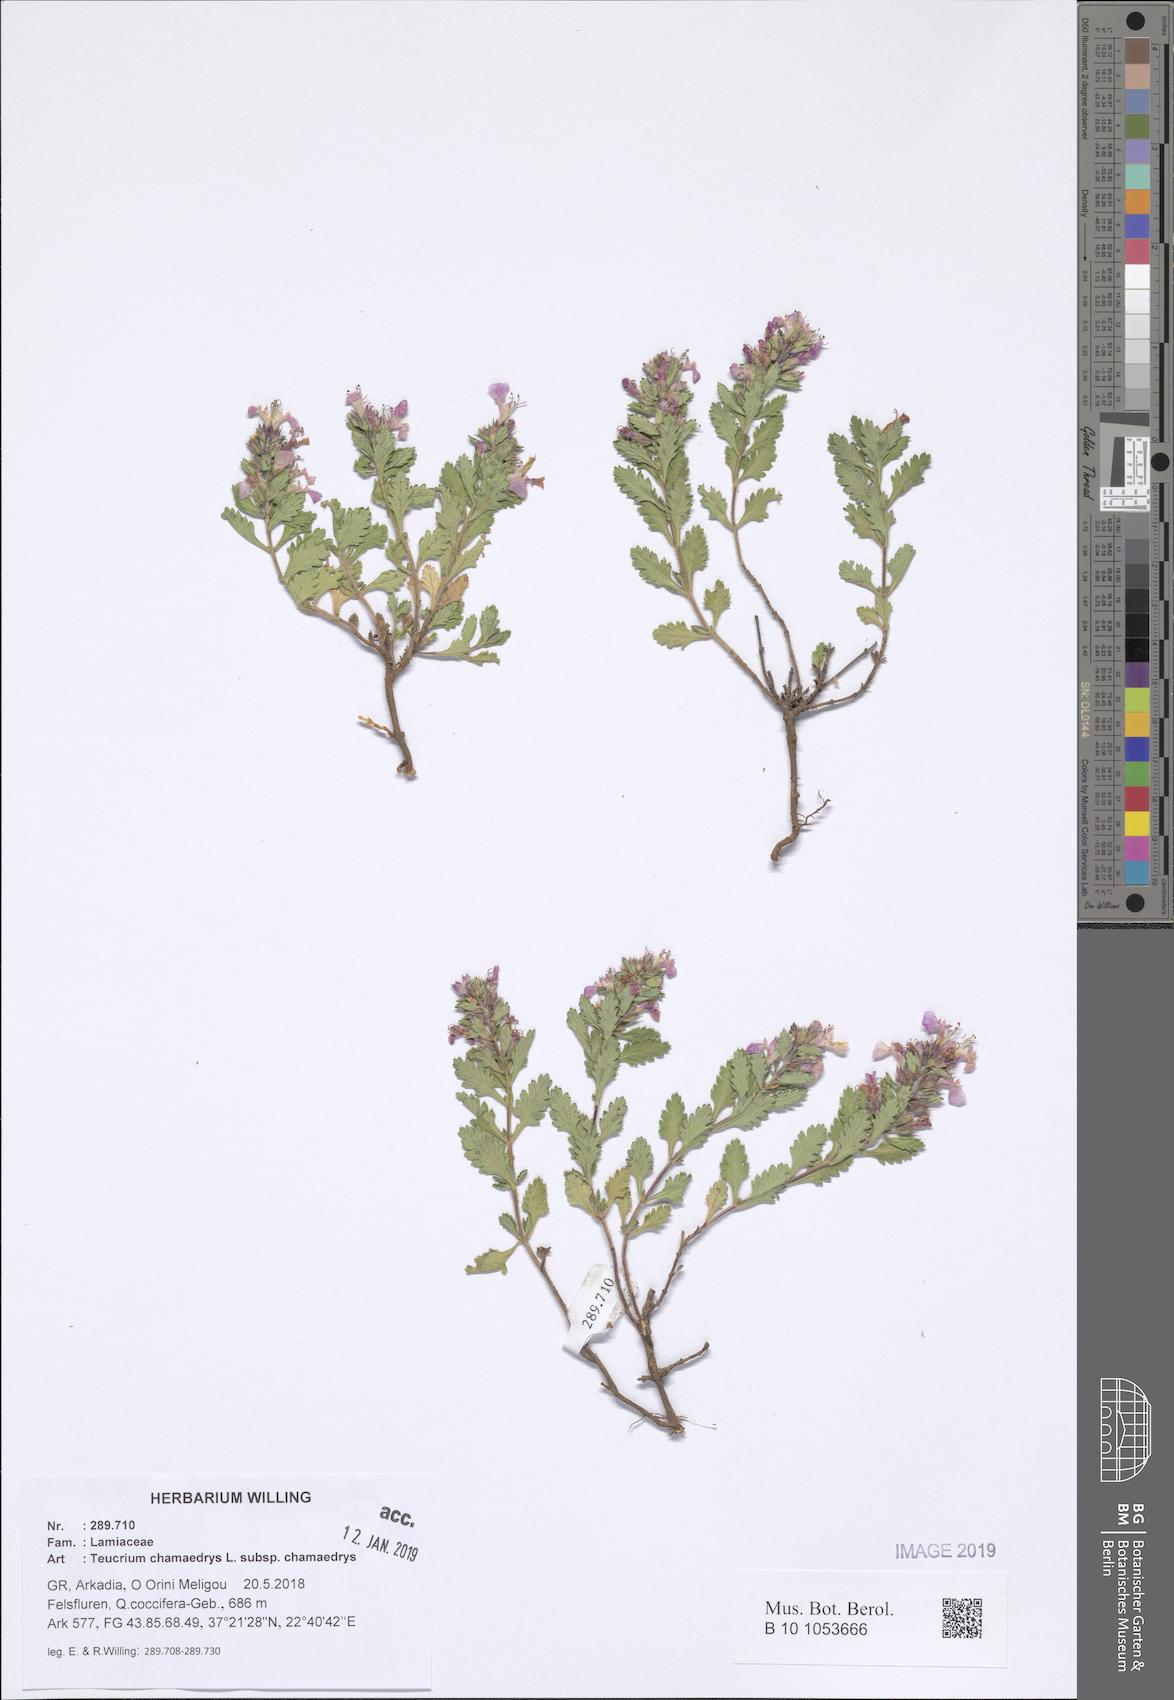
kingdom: Plantae
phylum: Tracheophyta
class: Magnoliopsida
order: Lamiales
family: Lamiaceae
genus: Teucrium
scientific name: Teucrium chamaedrys
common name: Wall germander
